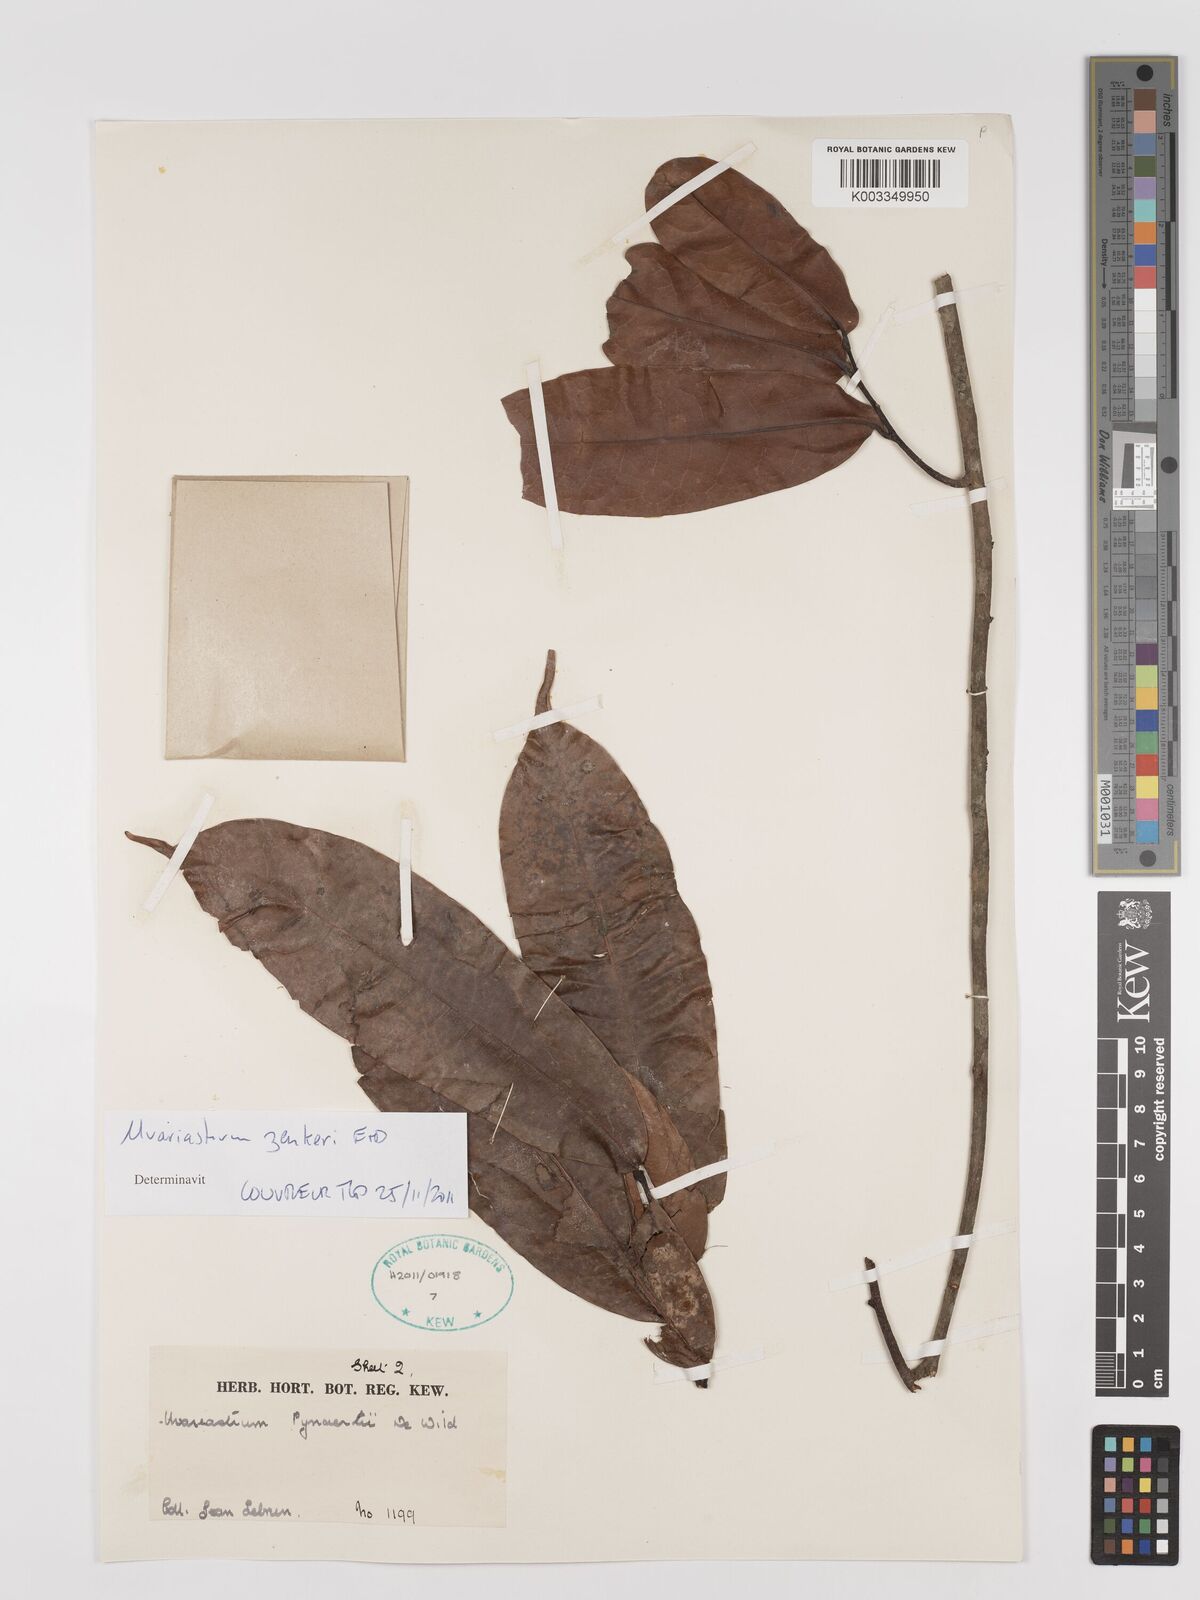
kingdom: Plantae
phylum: Tracheophyta
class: Magnoliopsida
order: Magnoliales
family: Annonaceae
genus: Uvariastrum
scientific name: Uvariastrum zenkeri
